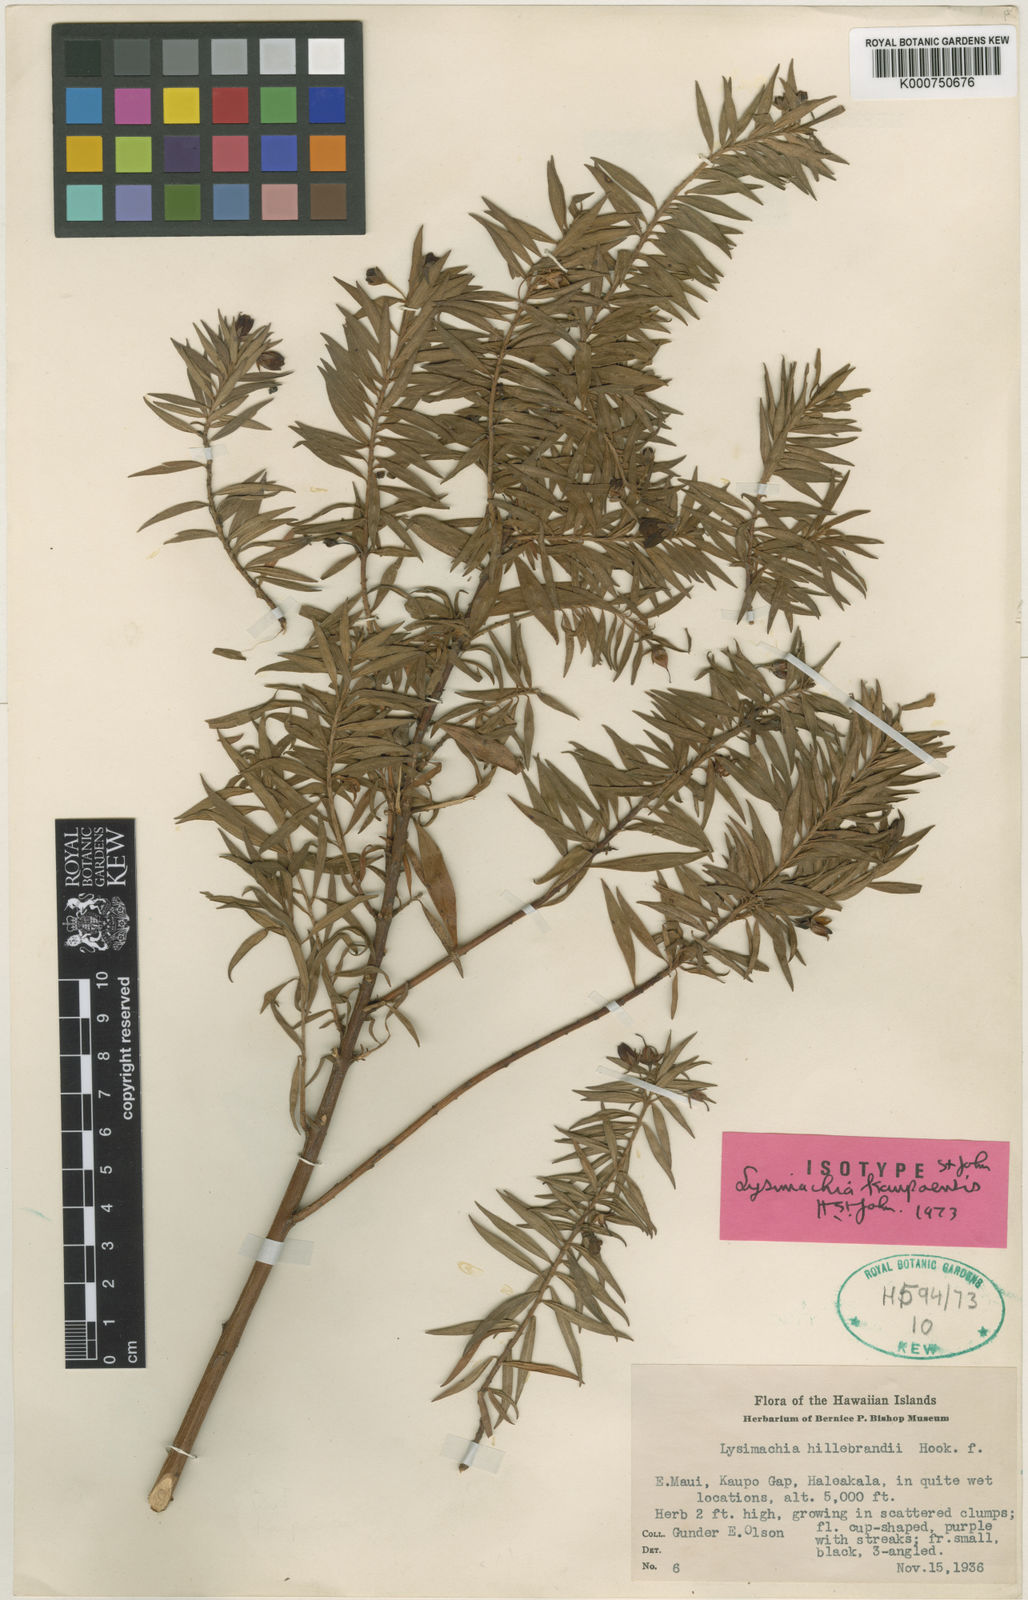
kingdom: Plantae
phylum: Tracheophyta
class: Magnoliopsida
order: Ericales
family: Primulaceae
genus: Lysimachia
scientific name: Lysimachia
